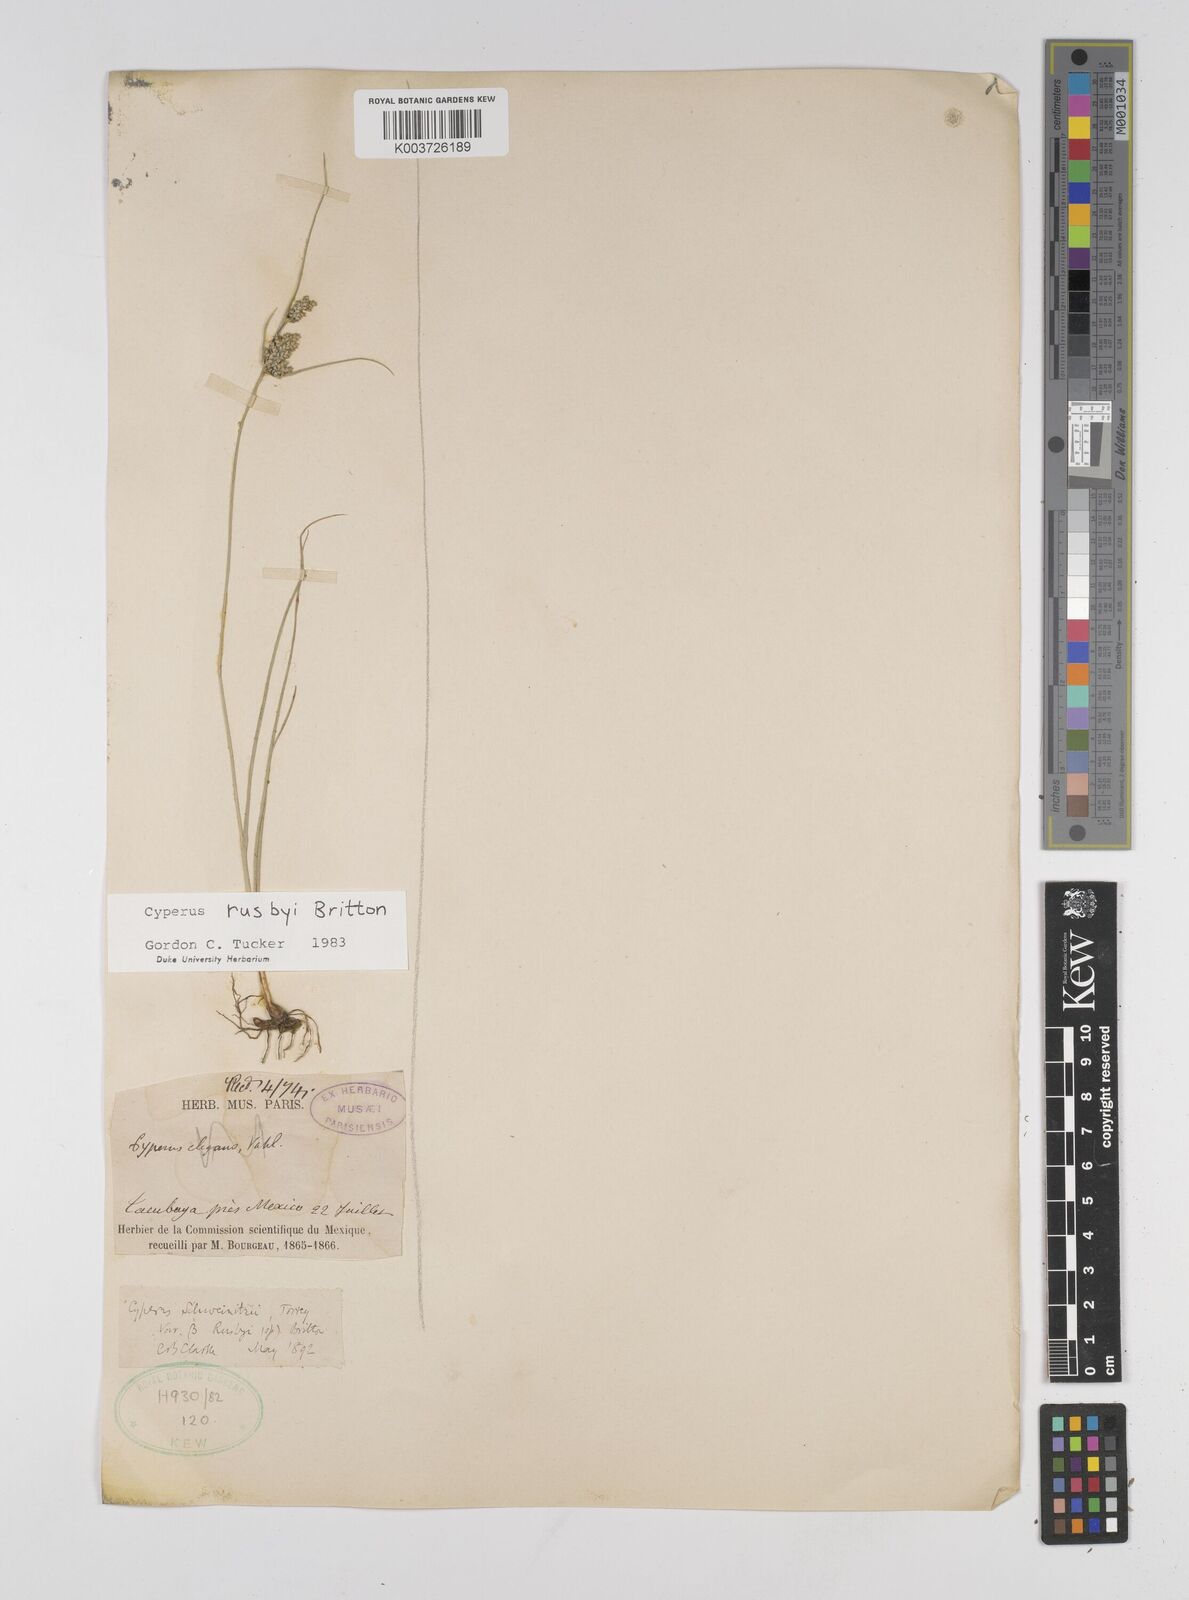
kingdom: Plantae
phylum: Tracheophyta
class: Liliopsida
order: Poales
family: Cyperaceae
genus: Cyperus
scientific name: Cyperus sphaerolepis
